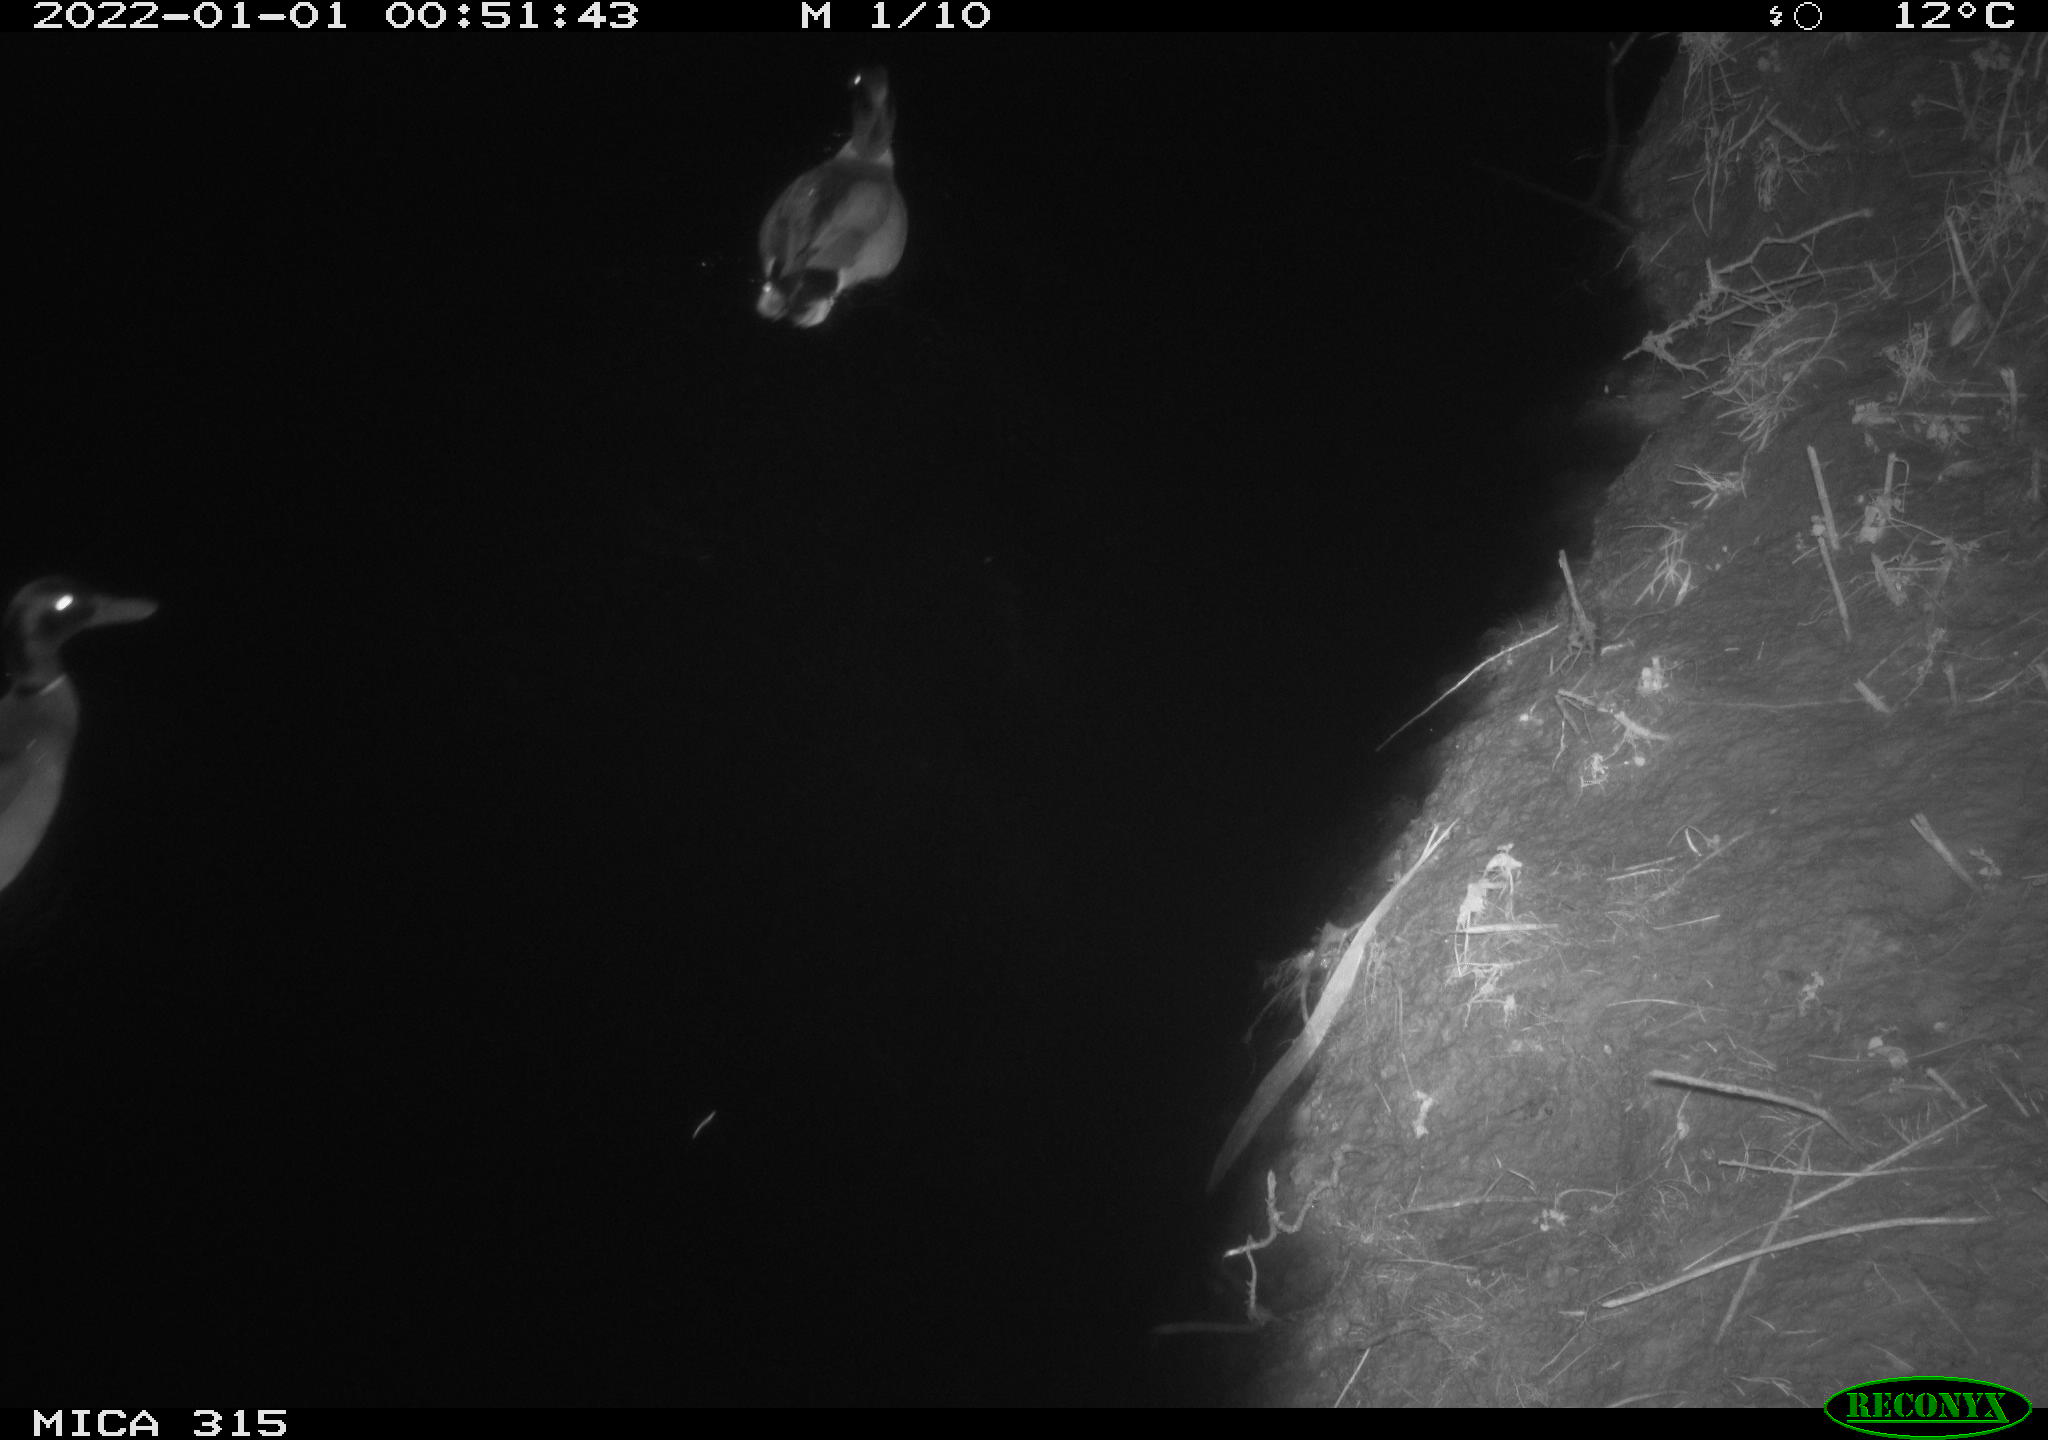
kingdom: Animalia
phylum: Chordata
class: Aves
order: Anseriformes
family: Anatidae
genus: Anas
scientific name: Anas
